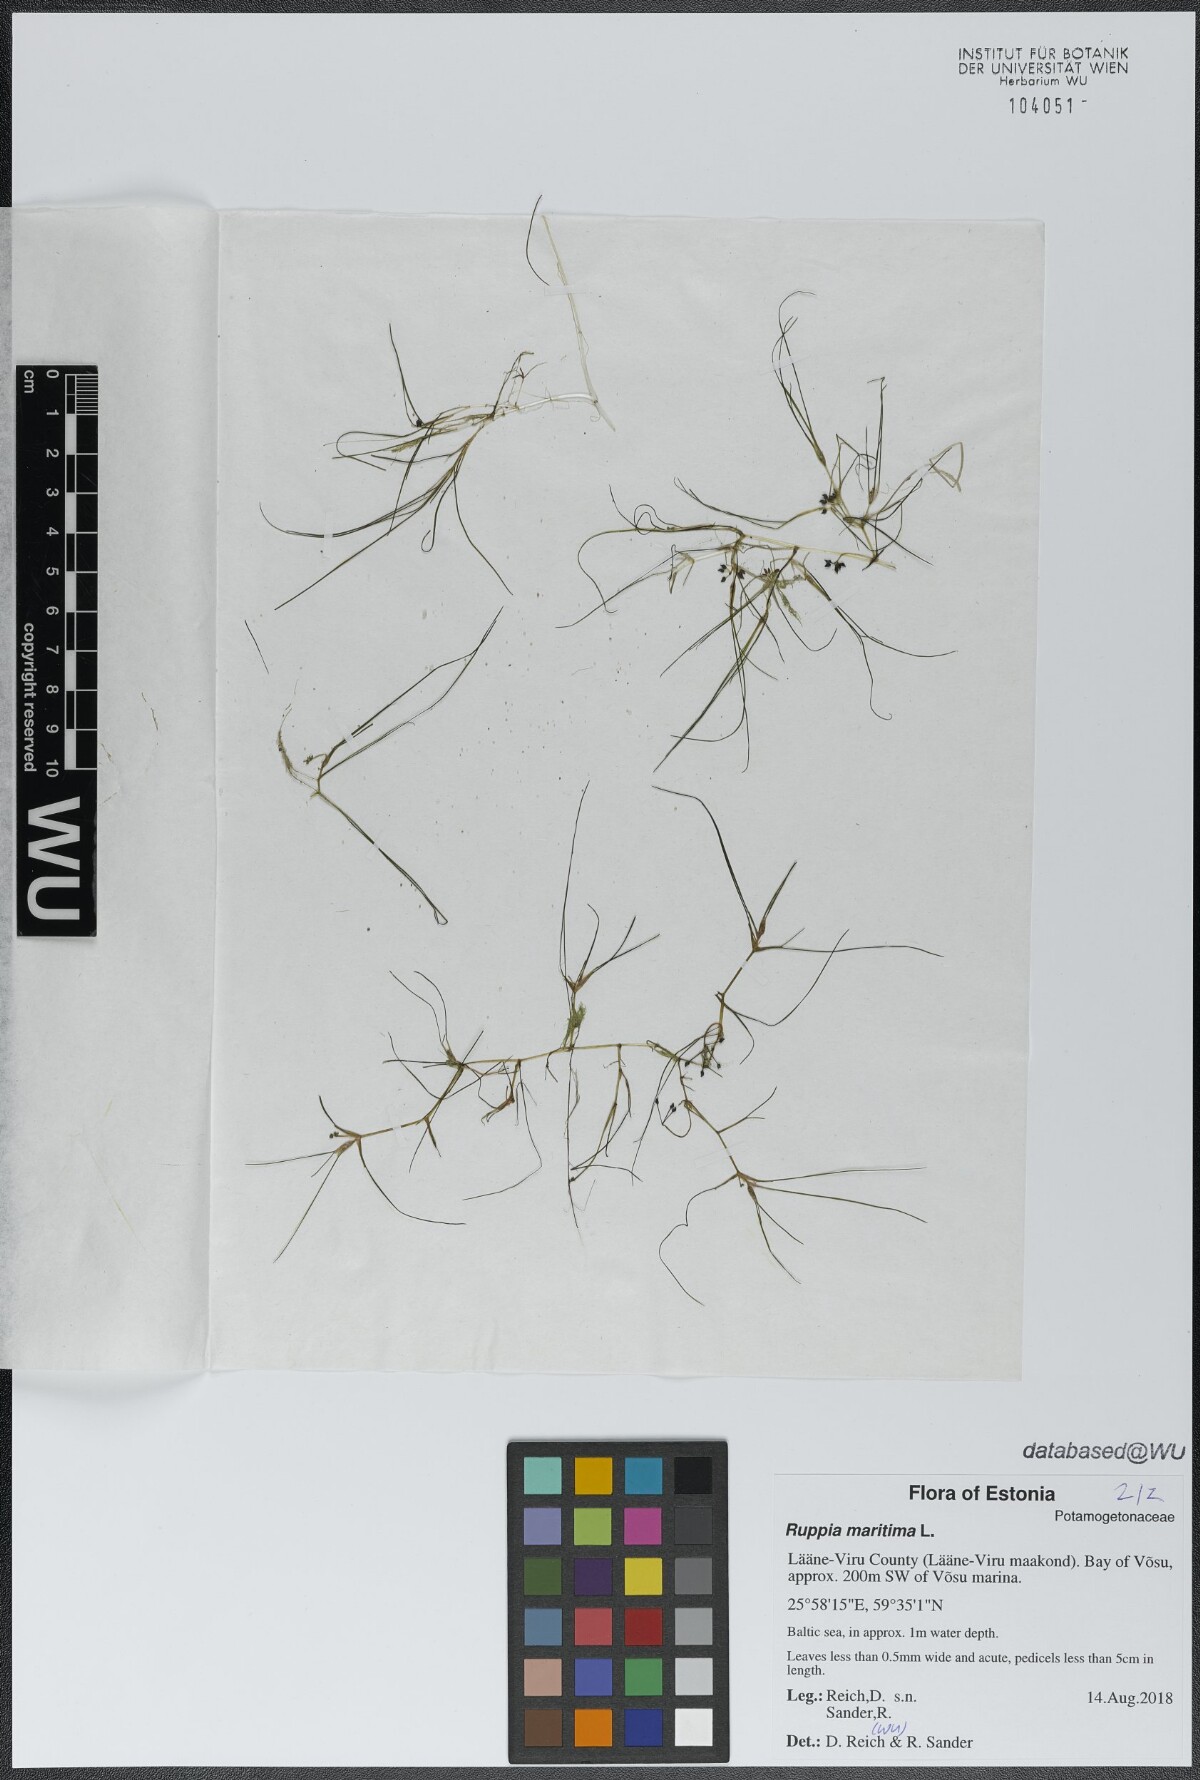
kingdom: Plantae
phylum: Tracheophyta
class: Liliopsida
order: Alismatales
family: Ruppiaceae
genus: Ruppia
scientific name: Ruppia maritima
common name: Beaked tasselweed
